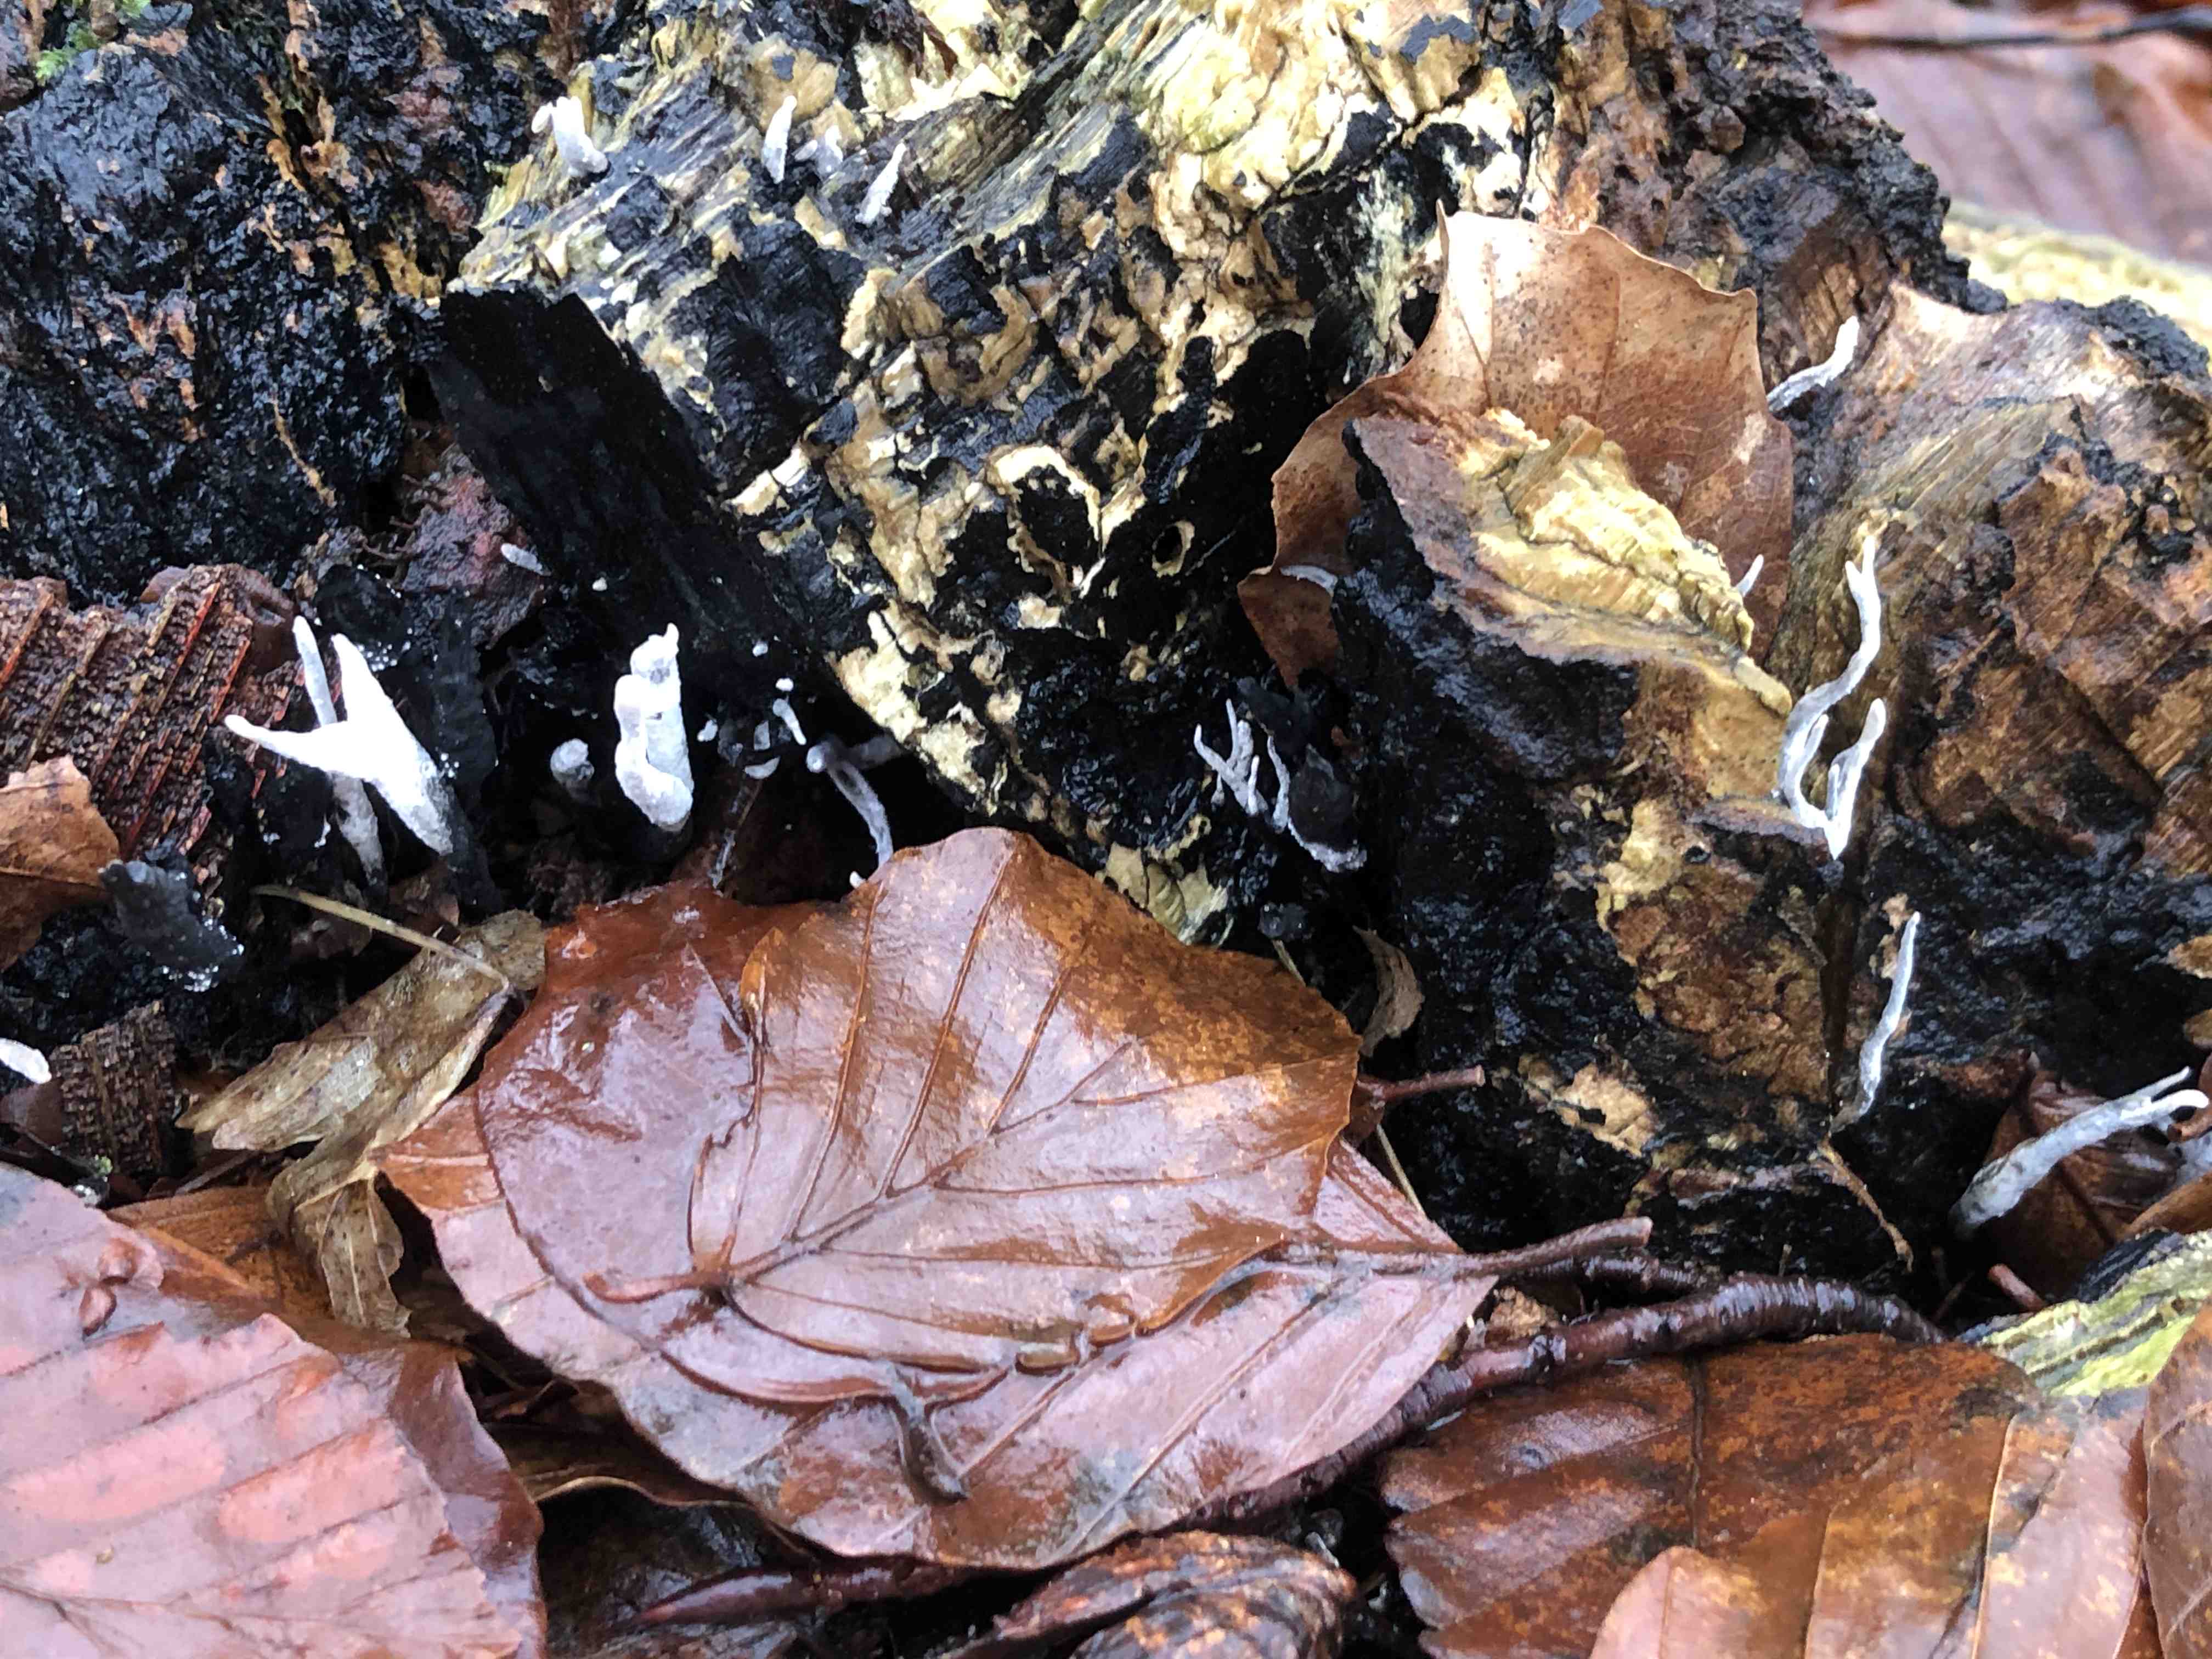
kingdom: Fungi
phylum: Ascomycota
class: Sordariomycetes
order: Xylariales
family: Xylariaceae
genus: Xylaria
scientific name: Xylaria hypoxylon
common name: grenet stødsvamp
